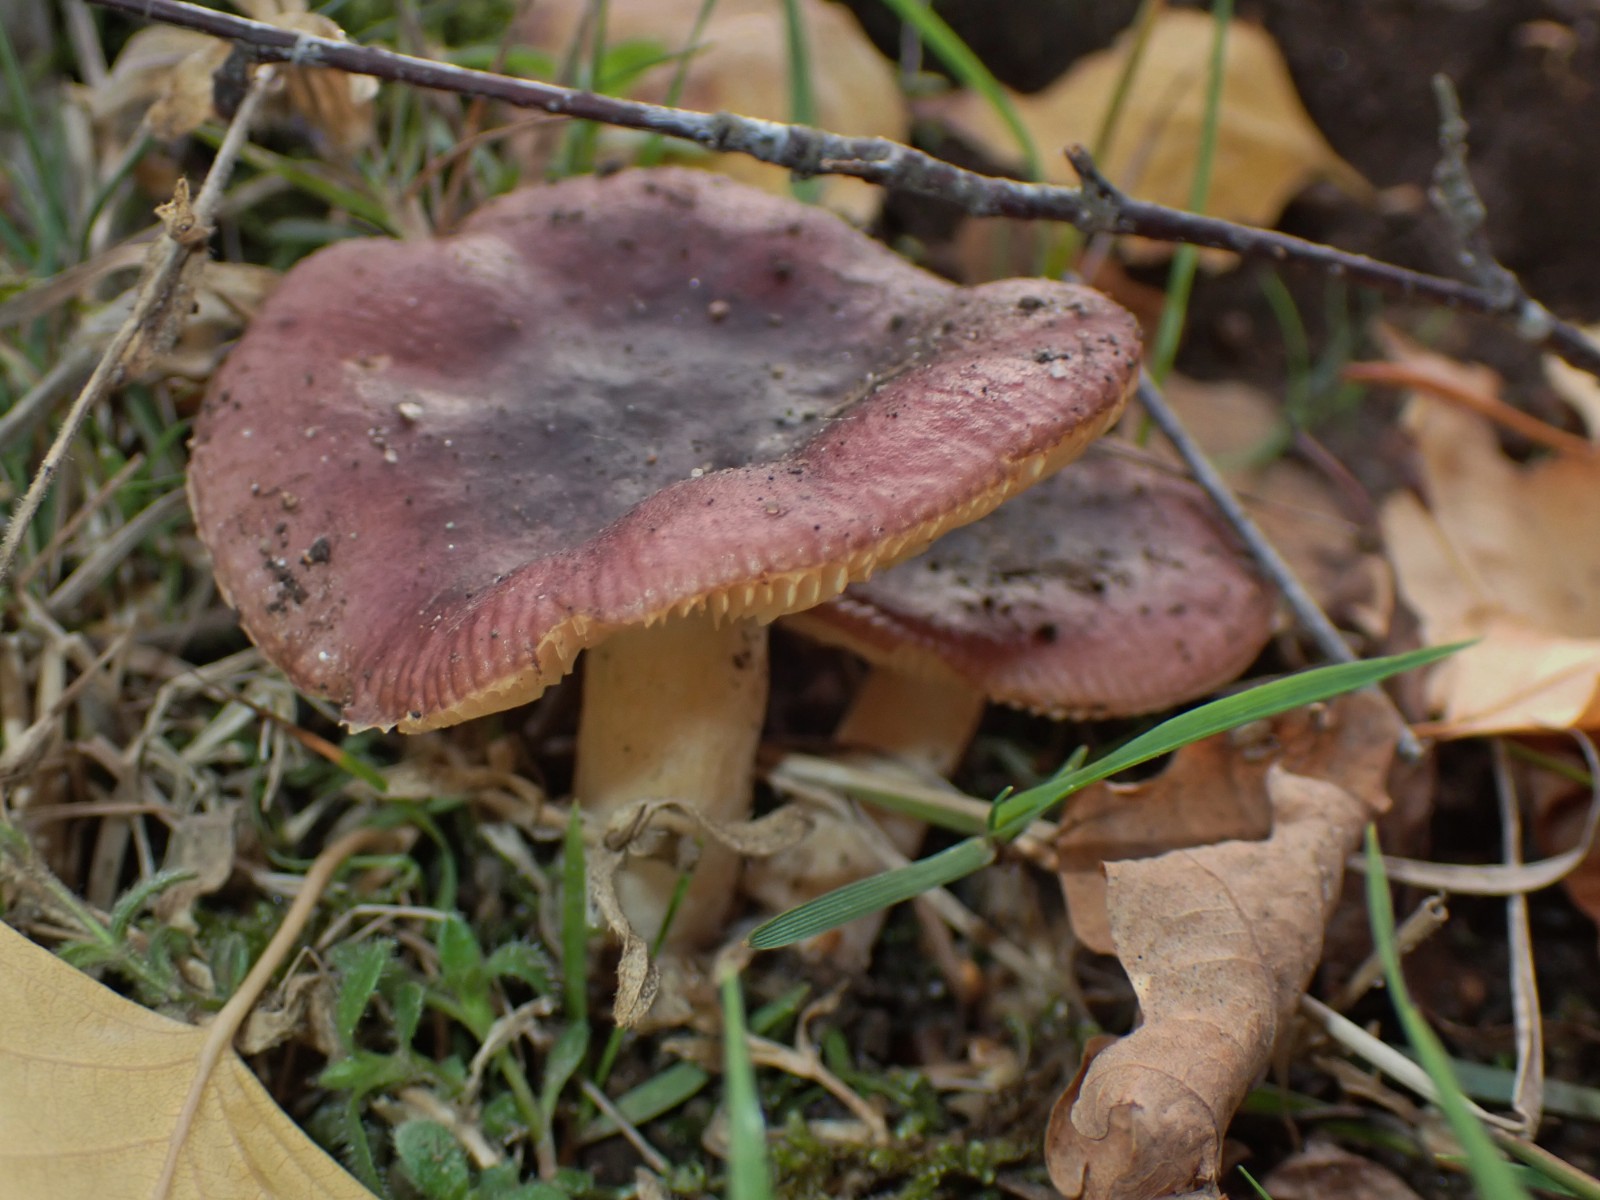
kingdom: Fungi
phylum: Basidiomycota
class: Agaricomycetes
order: Russulales
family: Russulaceae
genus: Russula
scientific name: Russula
